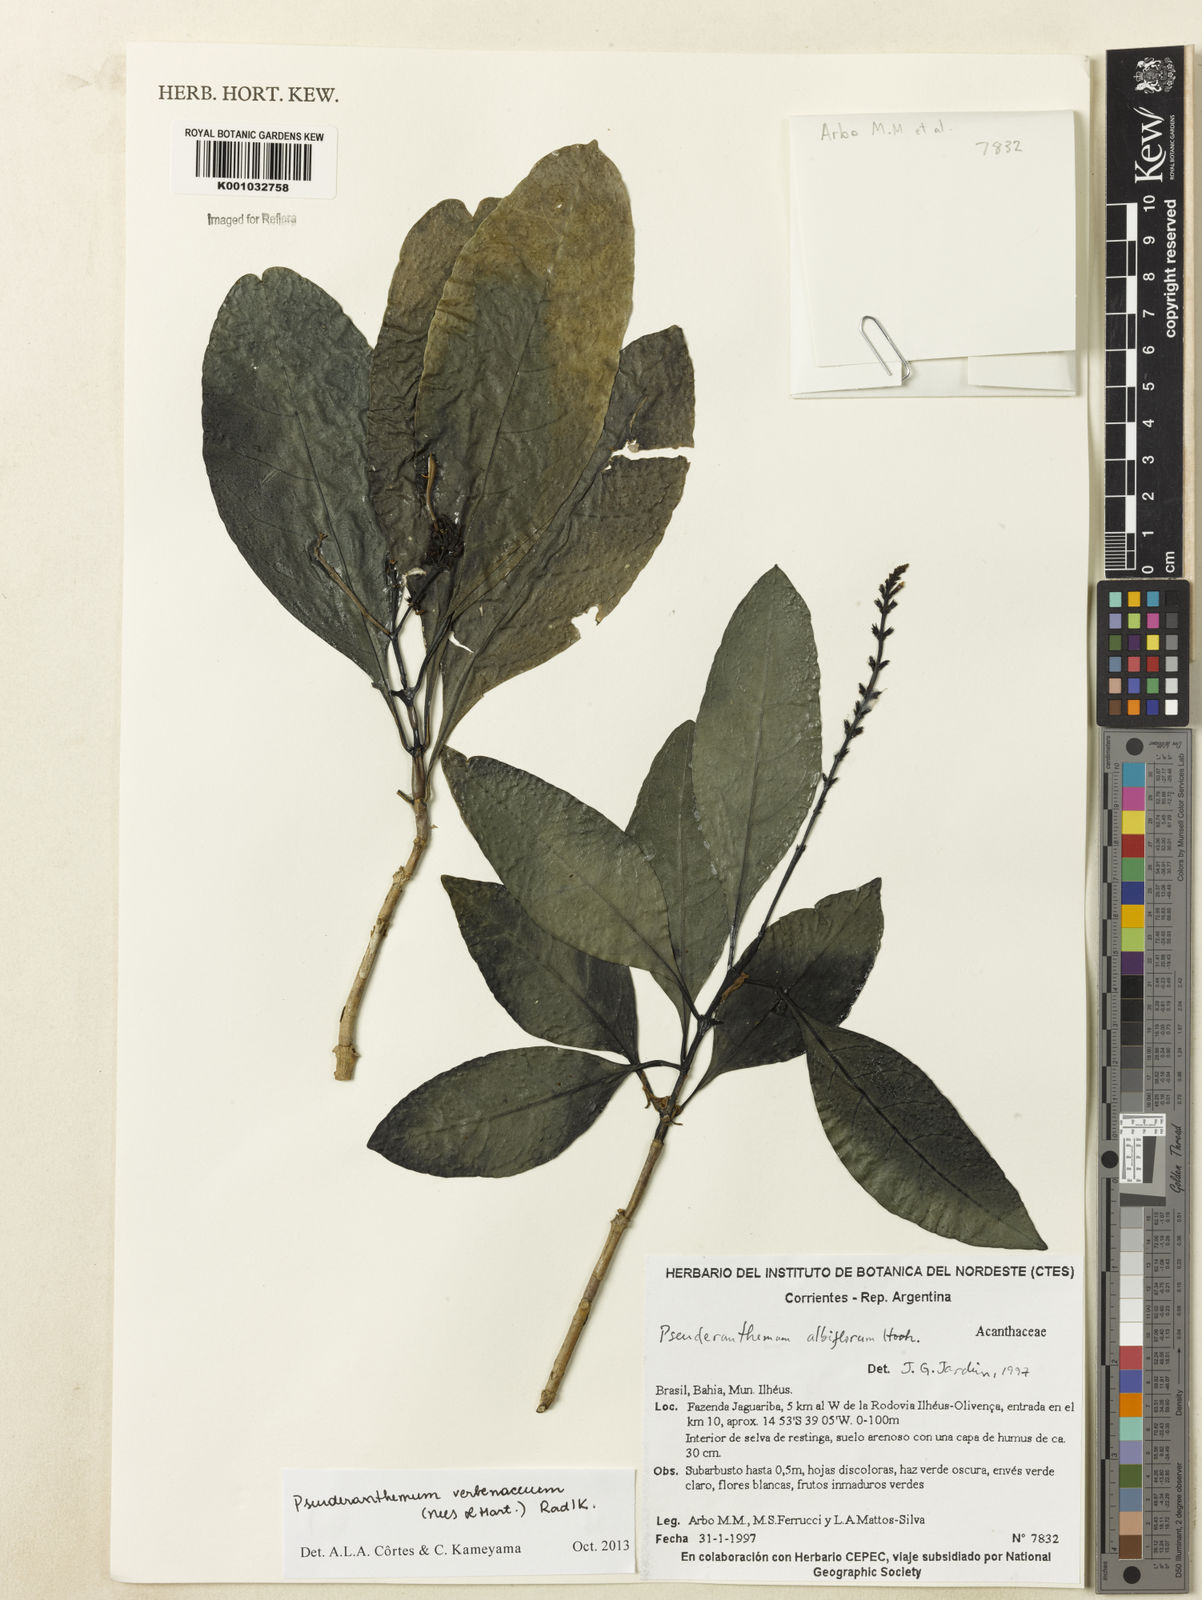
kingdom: Plantae
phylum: Tracheophyta
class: Magnoliopsida
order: Lamiales
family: Acanthaceae
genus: Pseuderanthemum
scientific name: Pseuderanthemum verbenaceum
